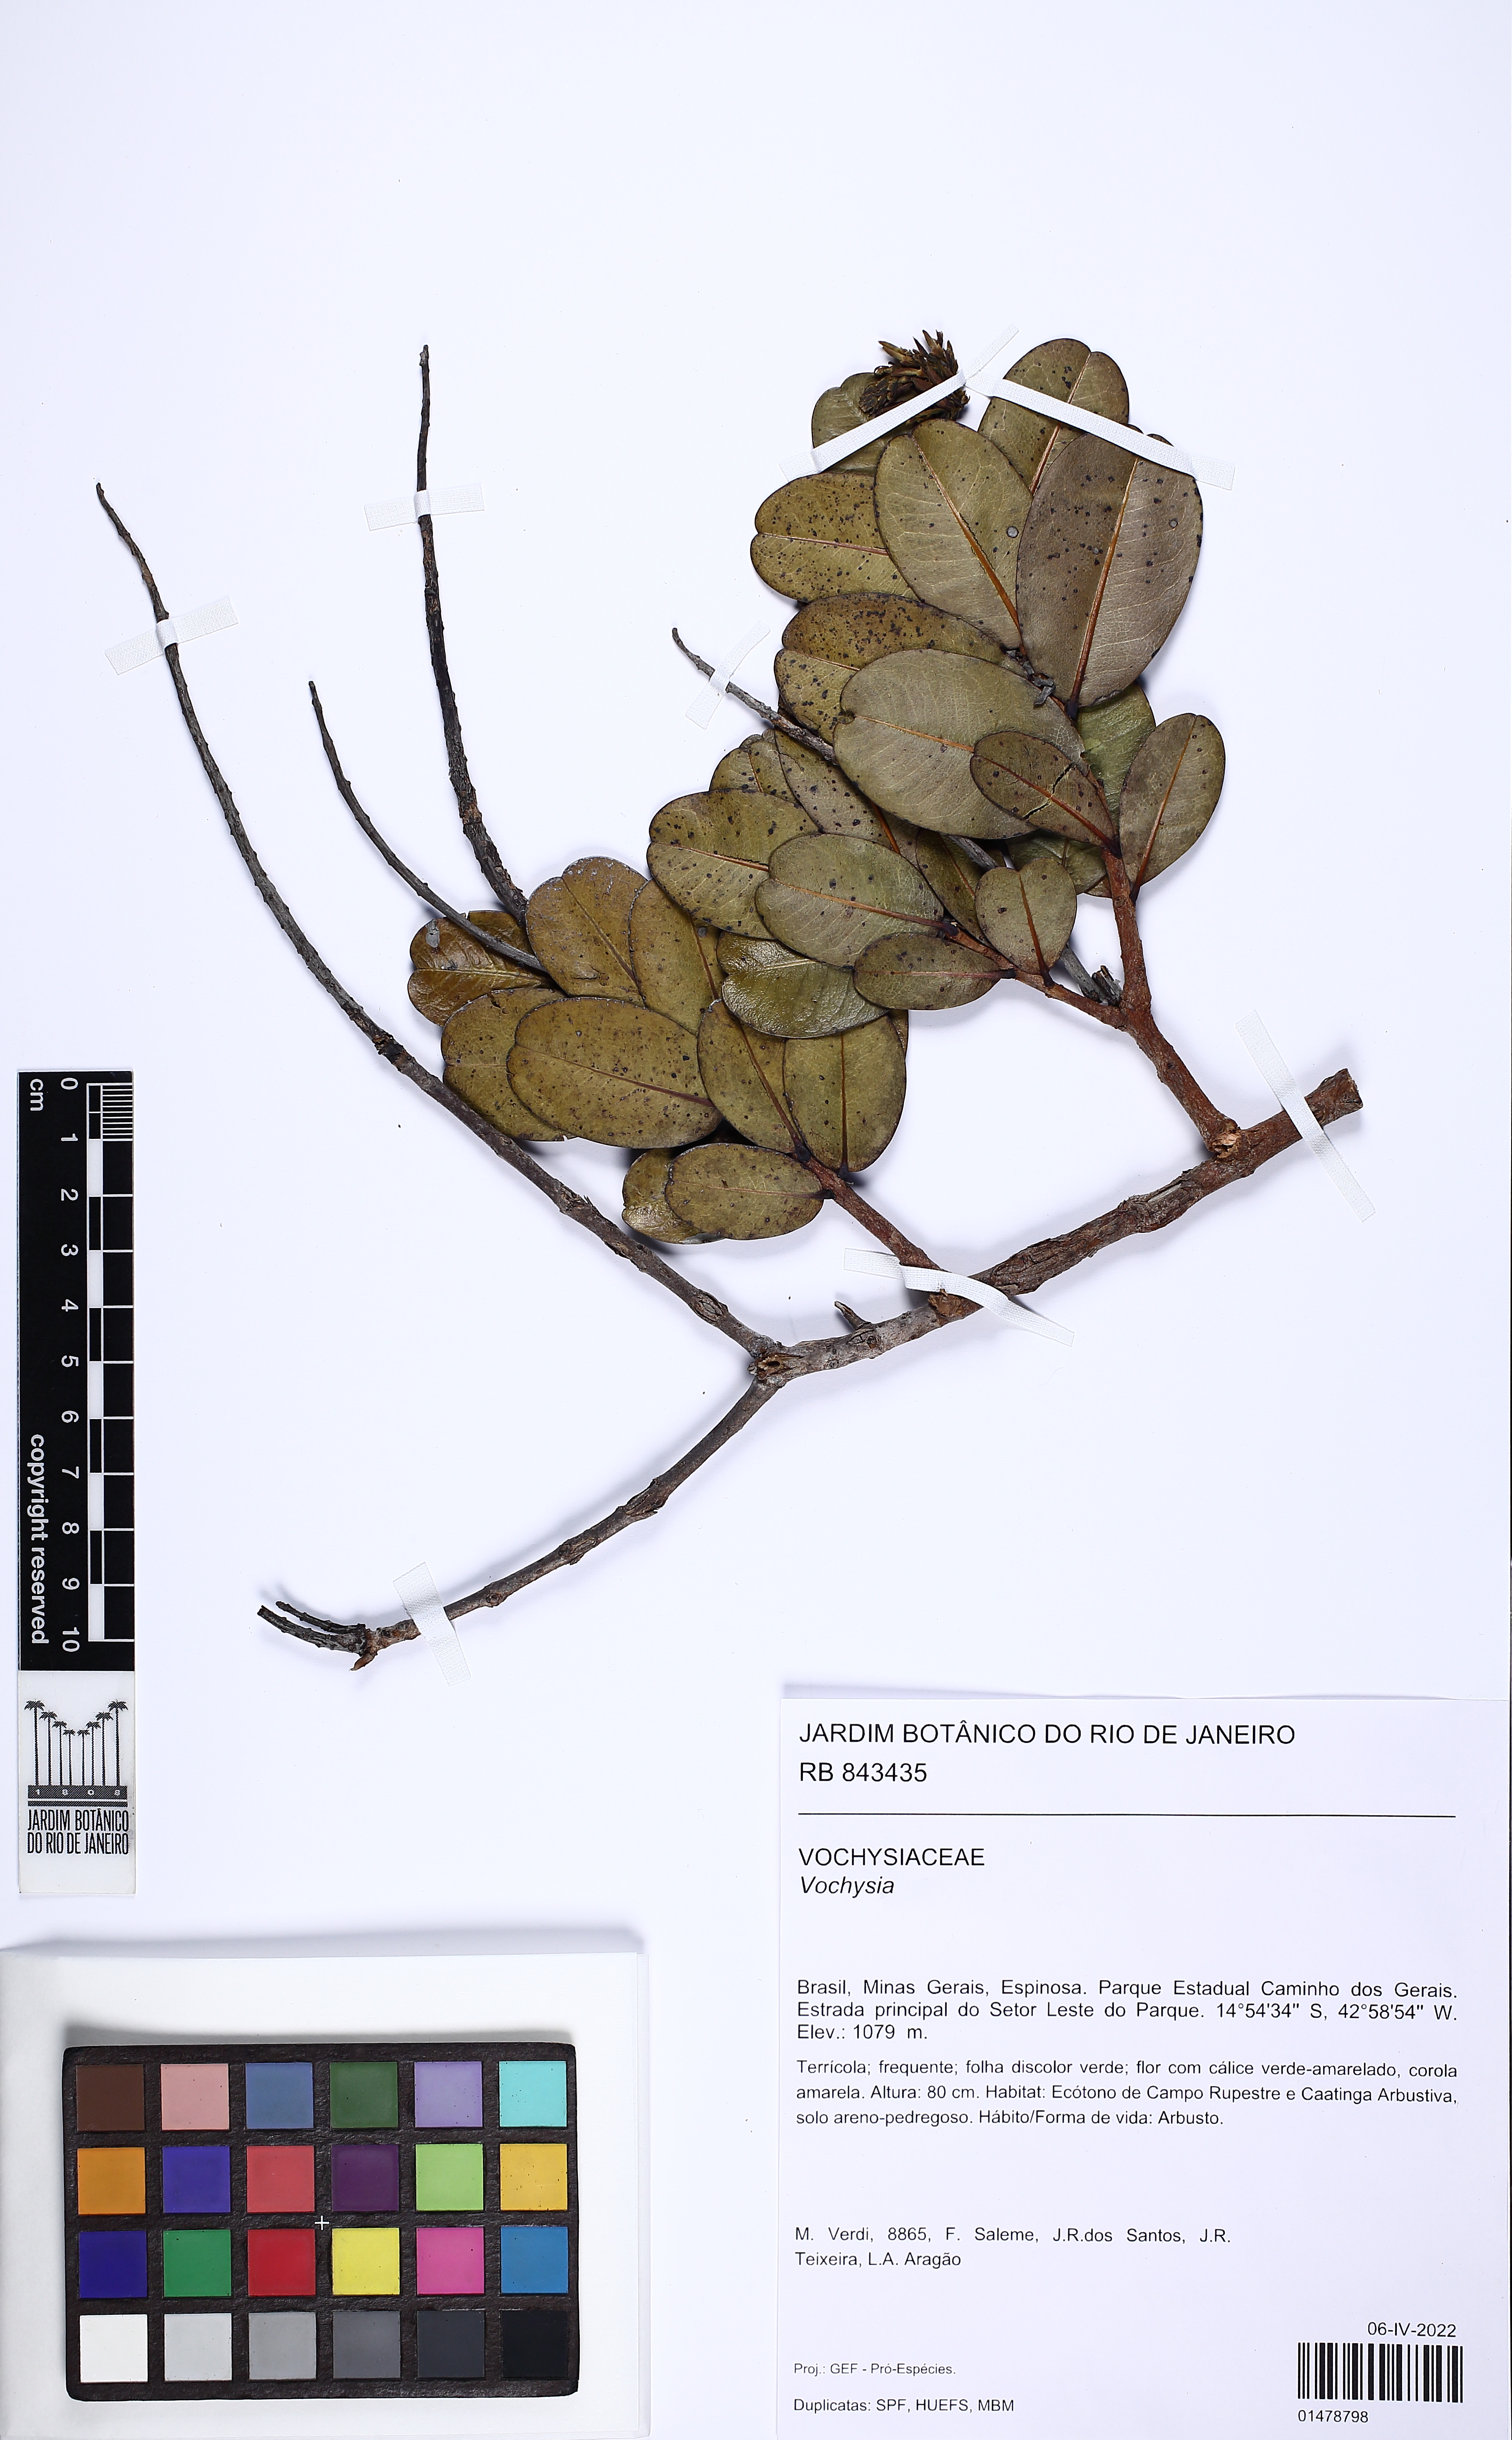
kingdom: Plantae
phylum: Tracheophyta
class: Magnoliopsida
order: Myrtales
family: Vochysiaceae
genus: Vochysia
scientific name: Vochysia
